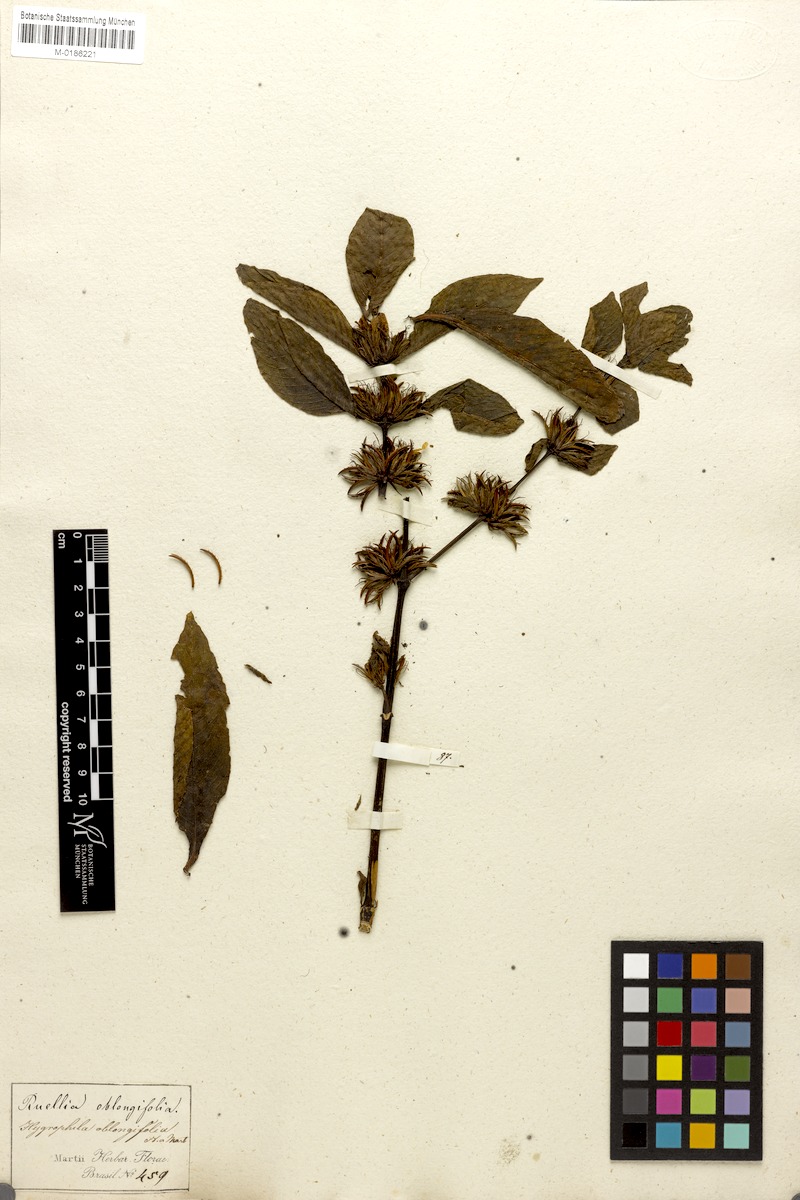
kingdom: Plantae
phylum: Tracheophyta
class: Magnoliopsida
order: Lamiales
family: Acanthaceae
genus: Hygrophila
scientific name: Hygrophila costata
